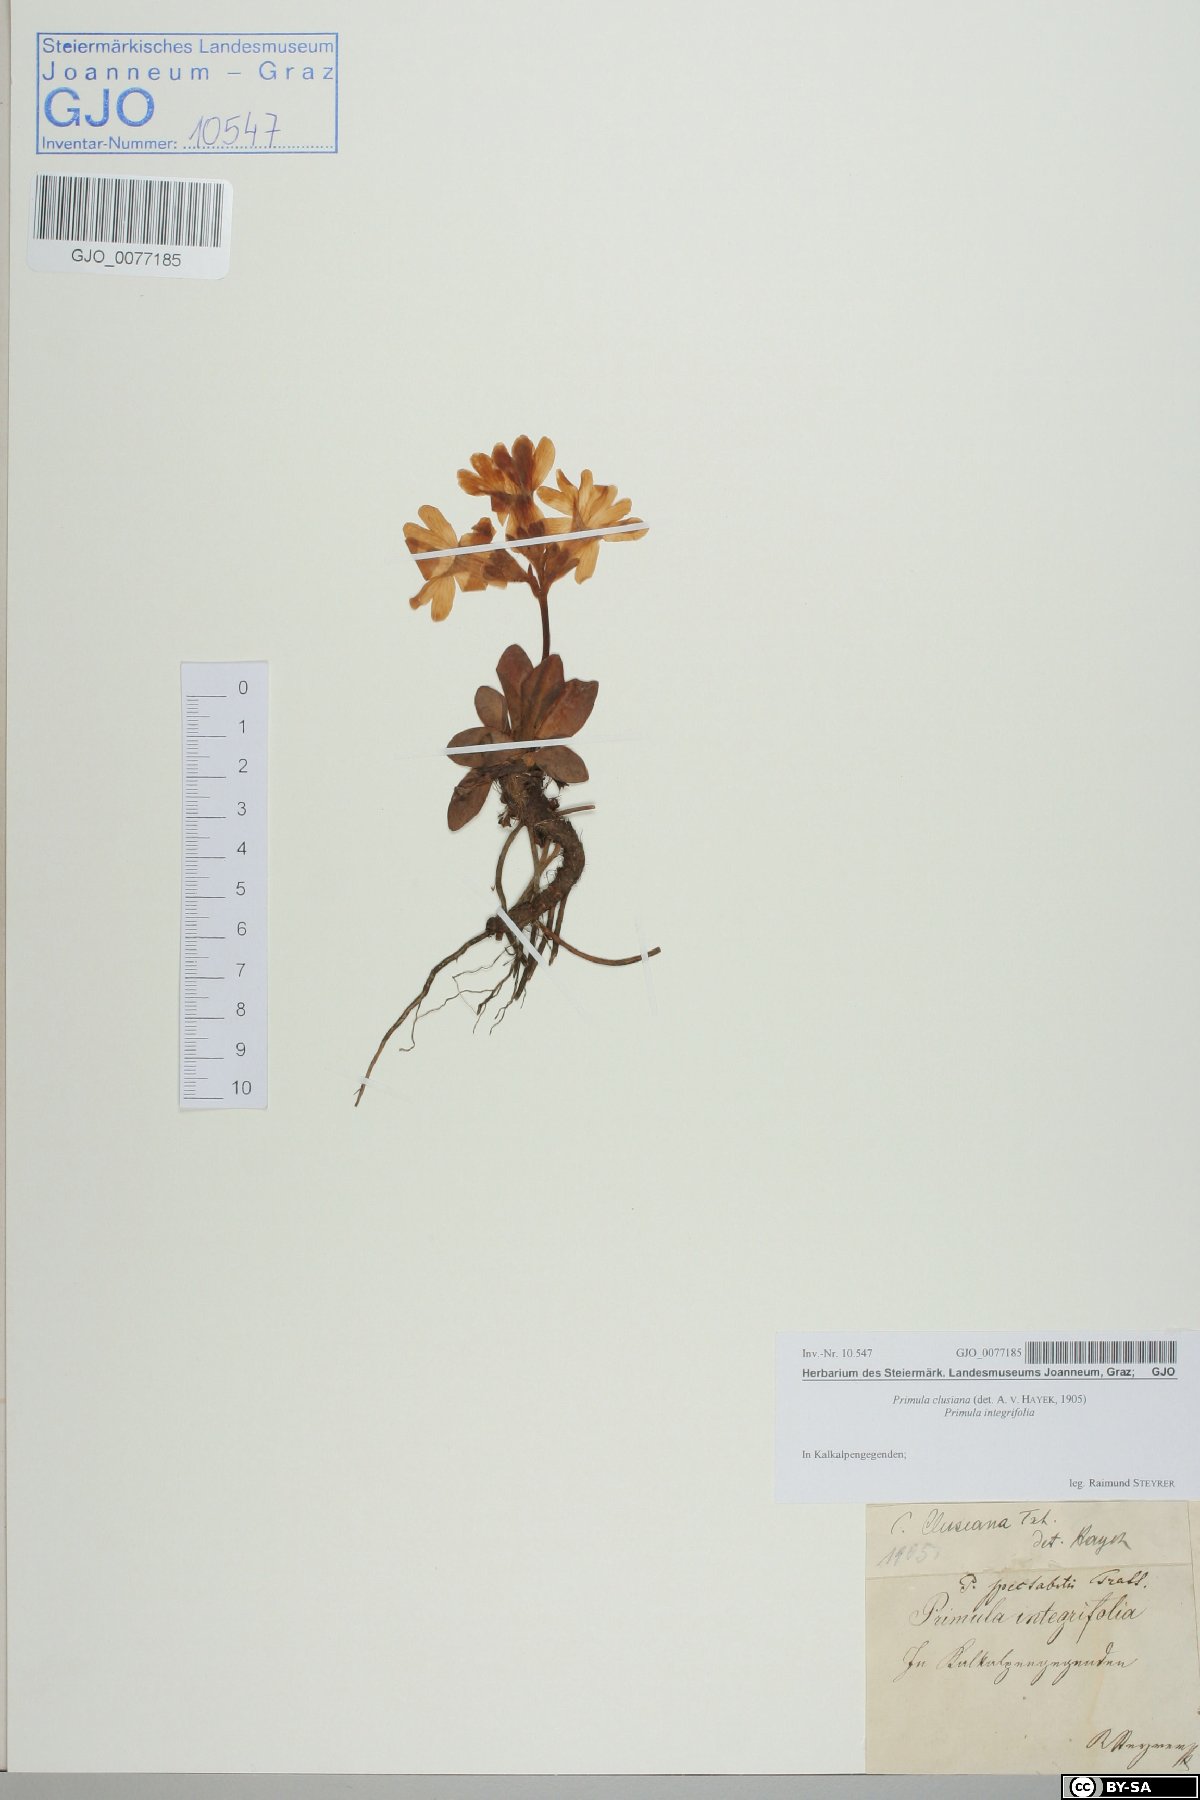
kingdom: Plantae
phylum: Tracheophyta
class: Magnoliopsida
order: Ericales
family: Primulaceae
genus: Primula
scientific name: Primula clusiana
